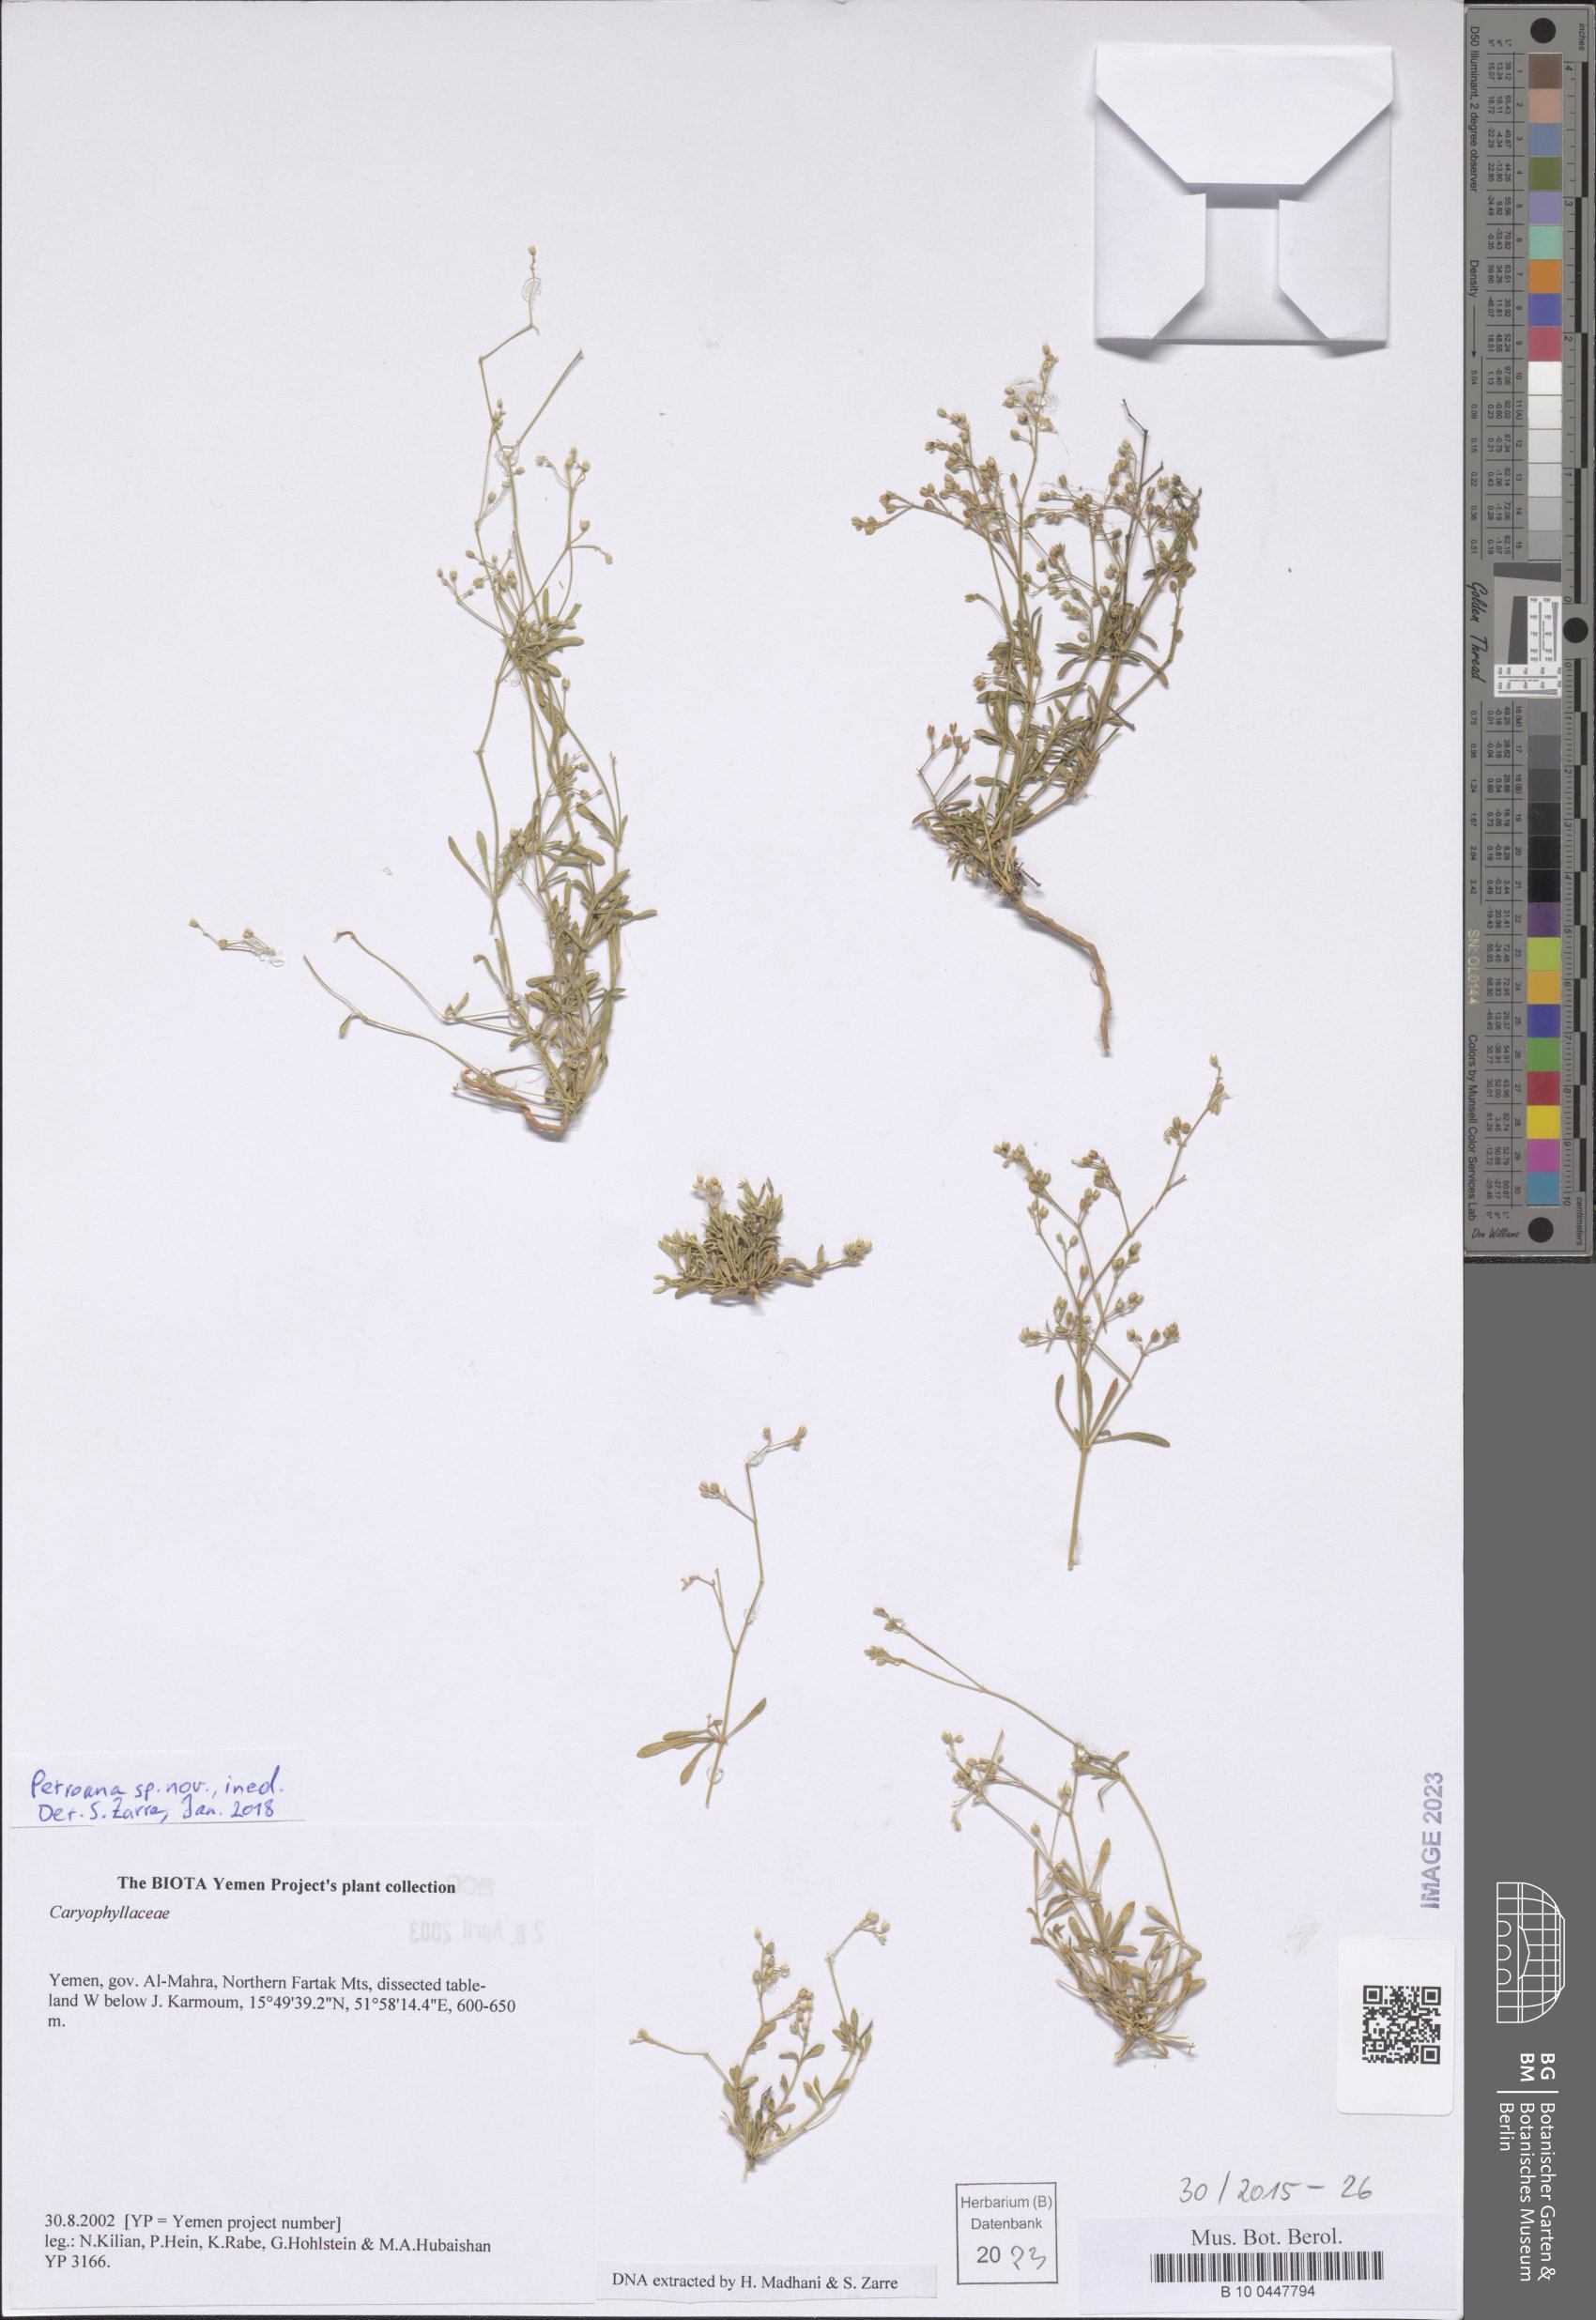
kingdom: Plantae
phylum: Tracheophyta
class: Magnoliopsida
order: Caryophyllales
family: Caryophyllaceae
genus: Petroana
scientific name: Petroana
